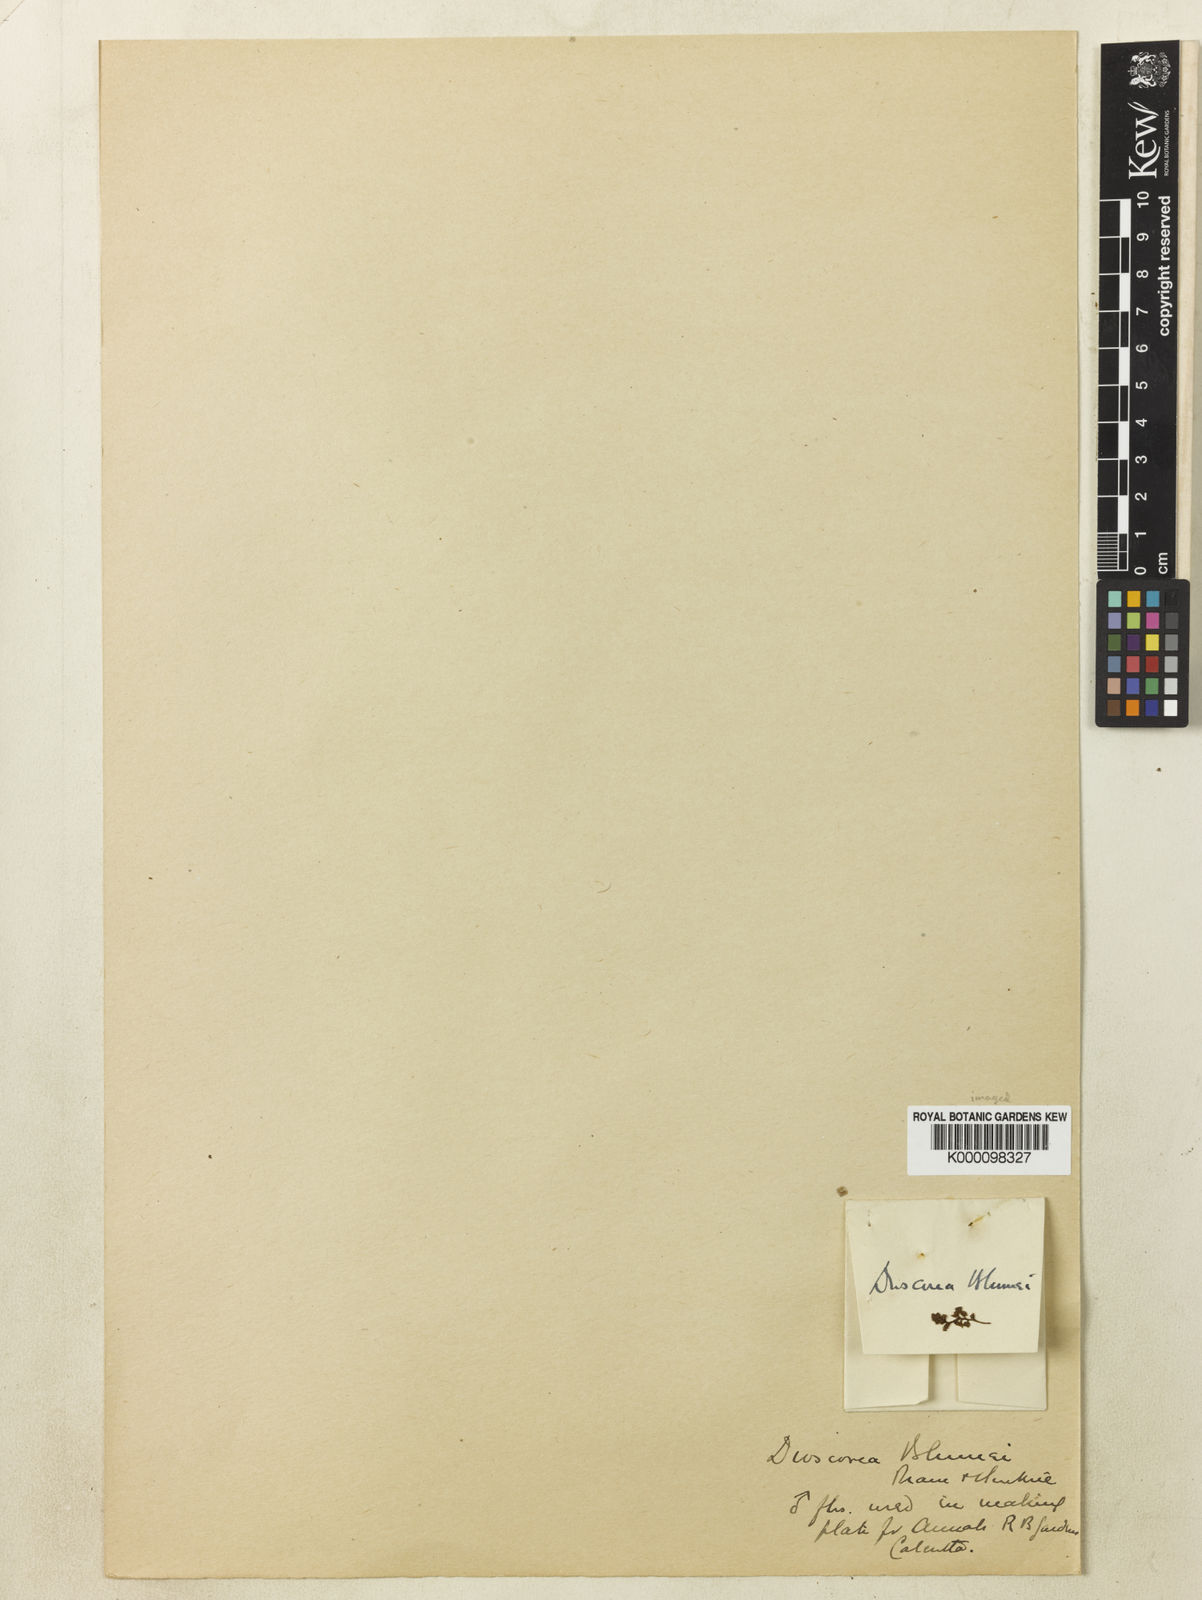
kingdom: Plantae
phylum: Tracheophyta
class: Liliopsida
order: Dioscoreales
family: Dioscoreaceae
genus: Dioscorea
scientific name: Dioscorea blumei
